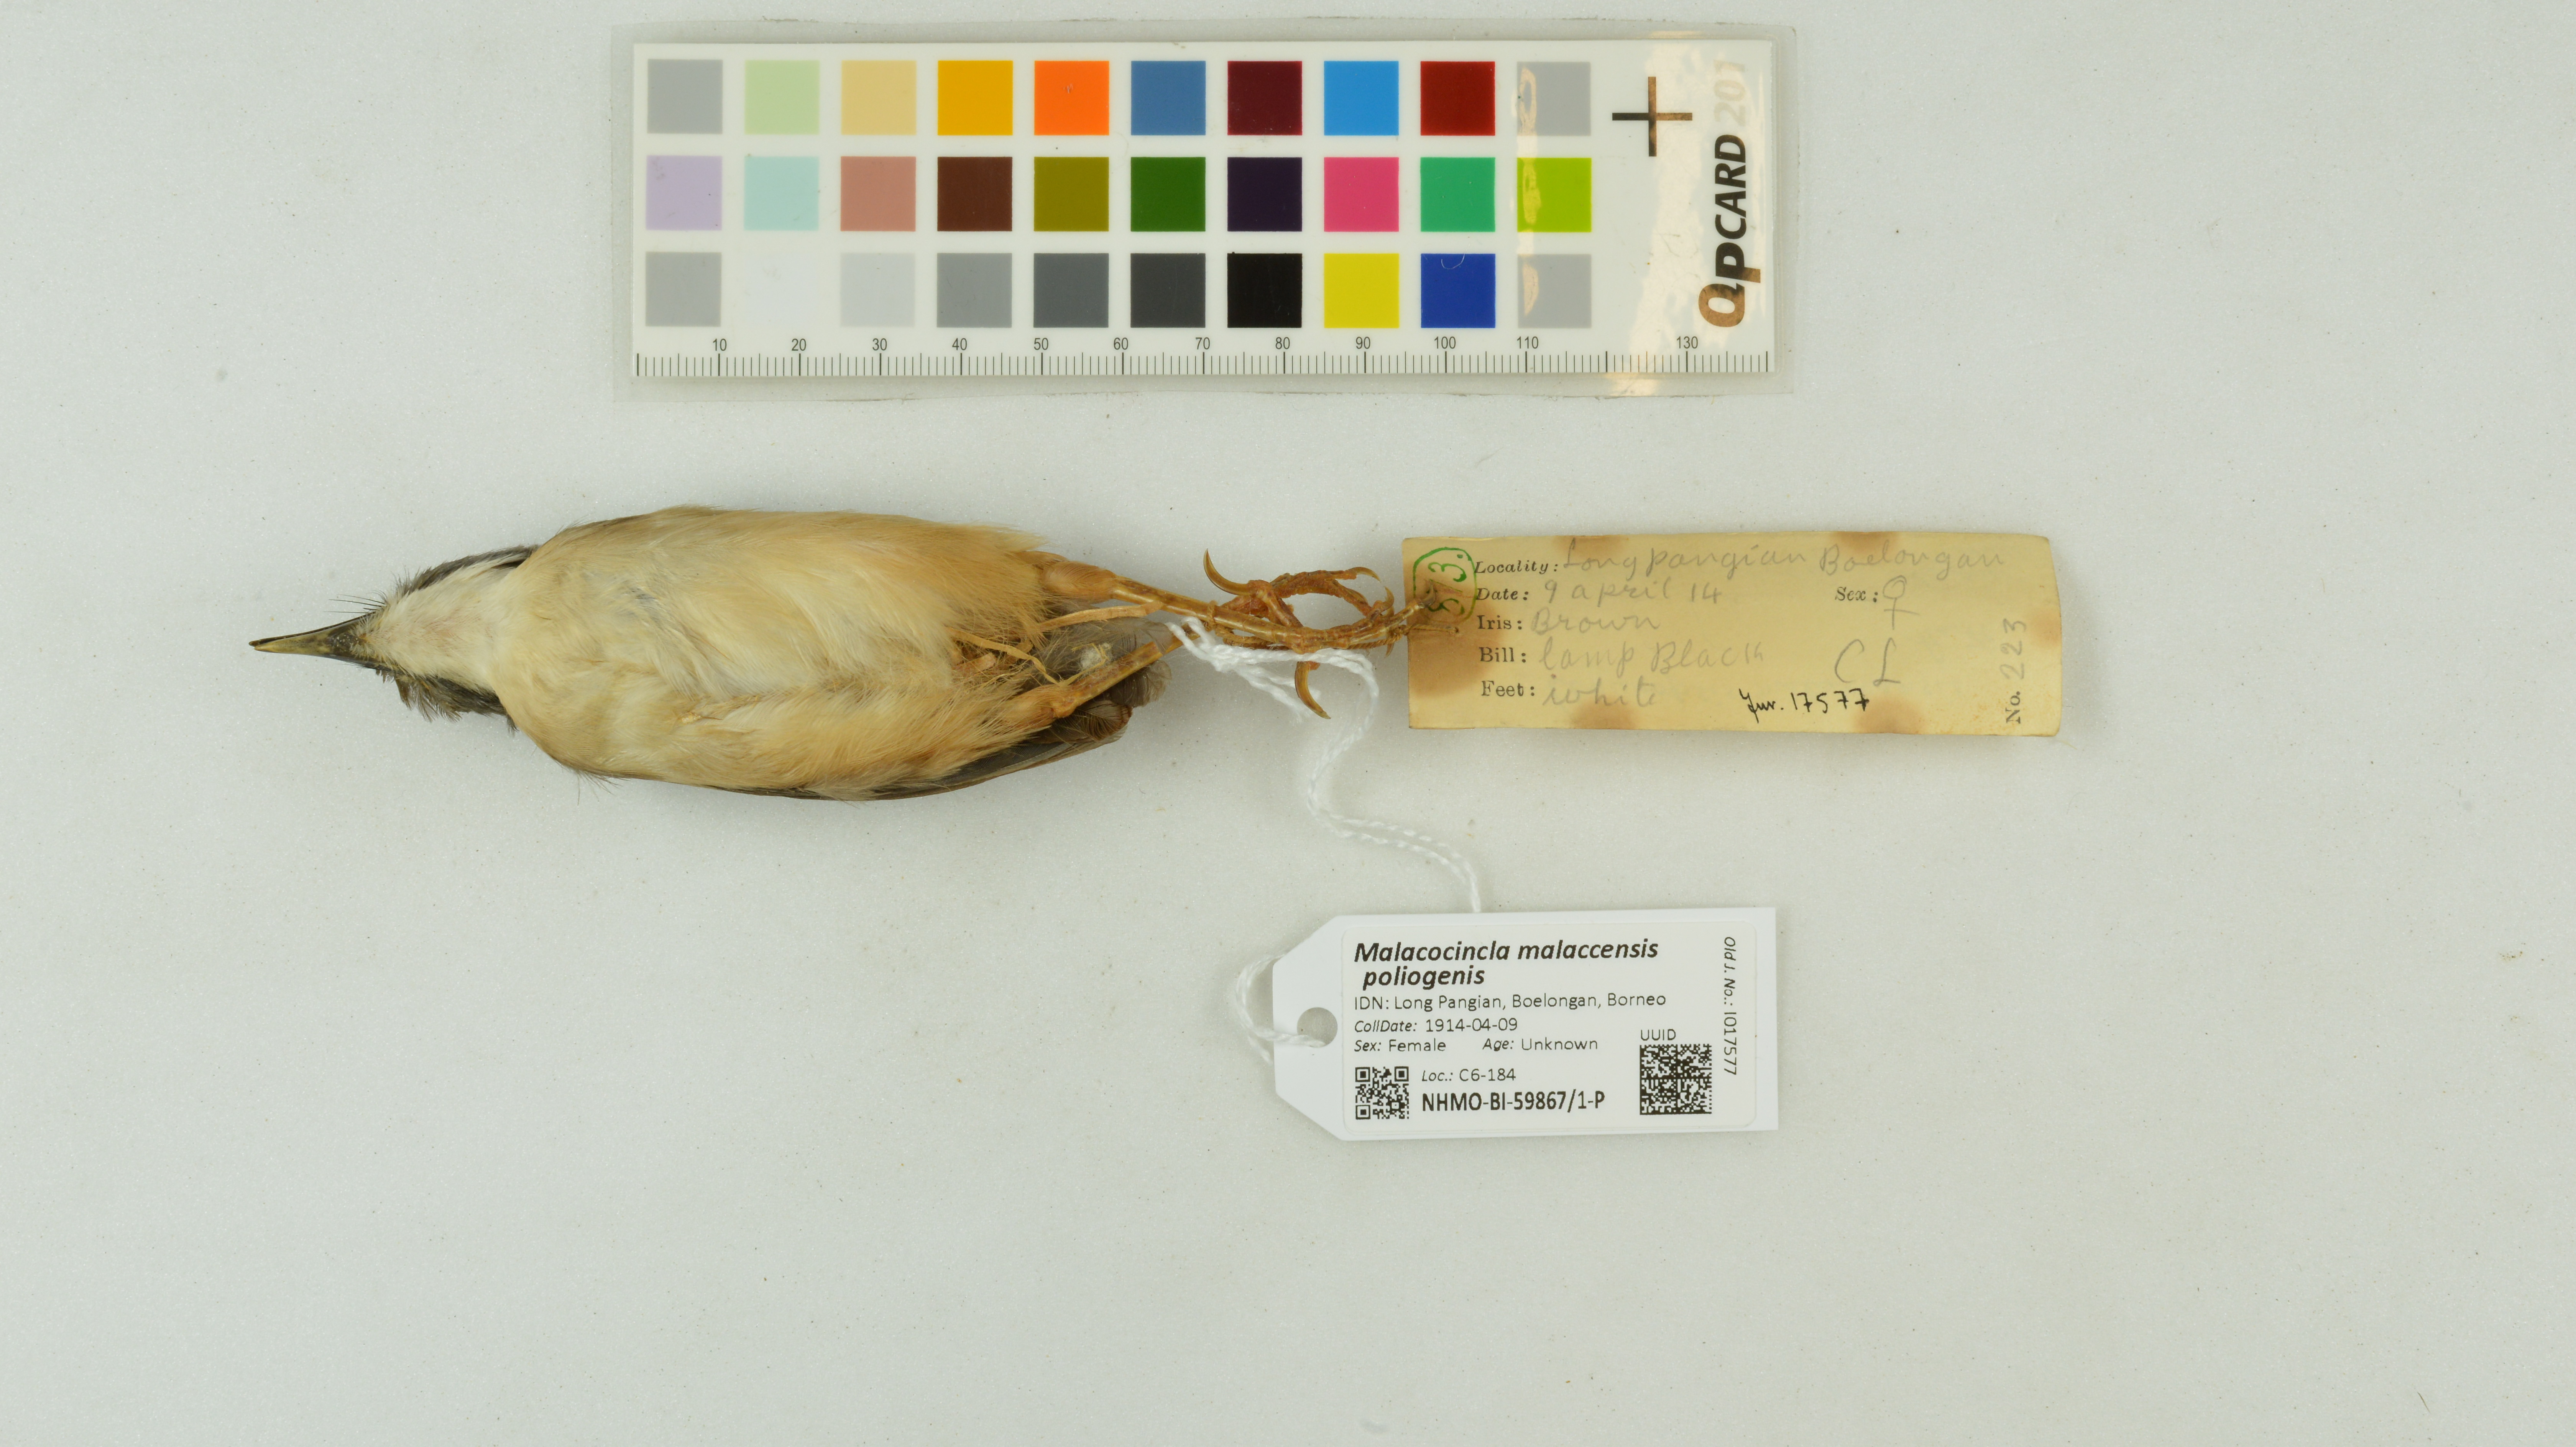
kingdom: Animalia
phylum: Chordata
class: Aves
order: Passeriformes
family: Pellorneidae
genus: Pellorneum
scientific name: Pellorneum malaccense
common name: Short-tailed babbler
